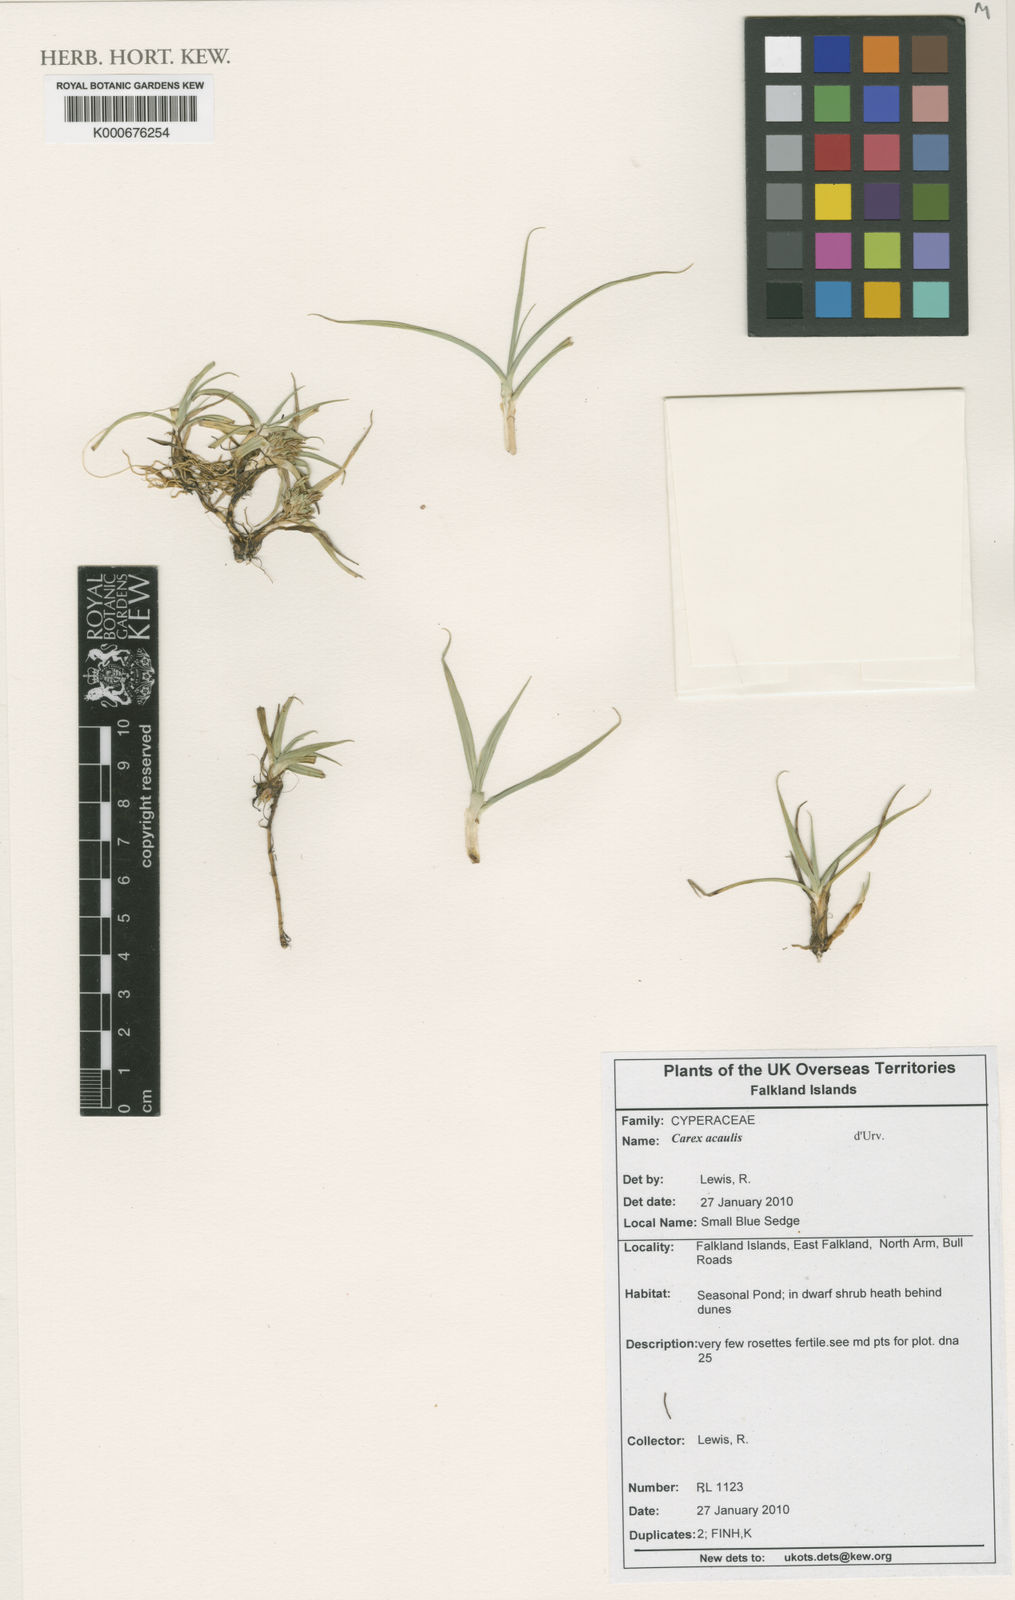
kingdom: Plantae
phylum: Tracheophyta
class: Liliopsida
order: Poales
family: Cyperaceae
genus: Carex
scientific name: Carex acaulis
